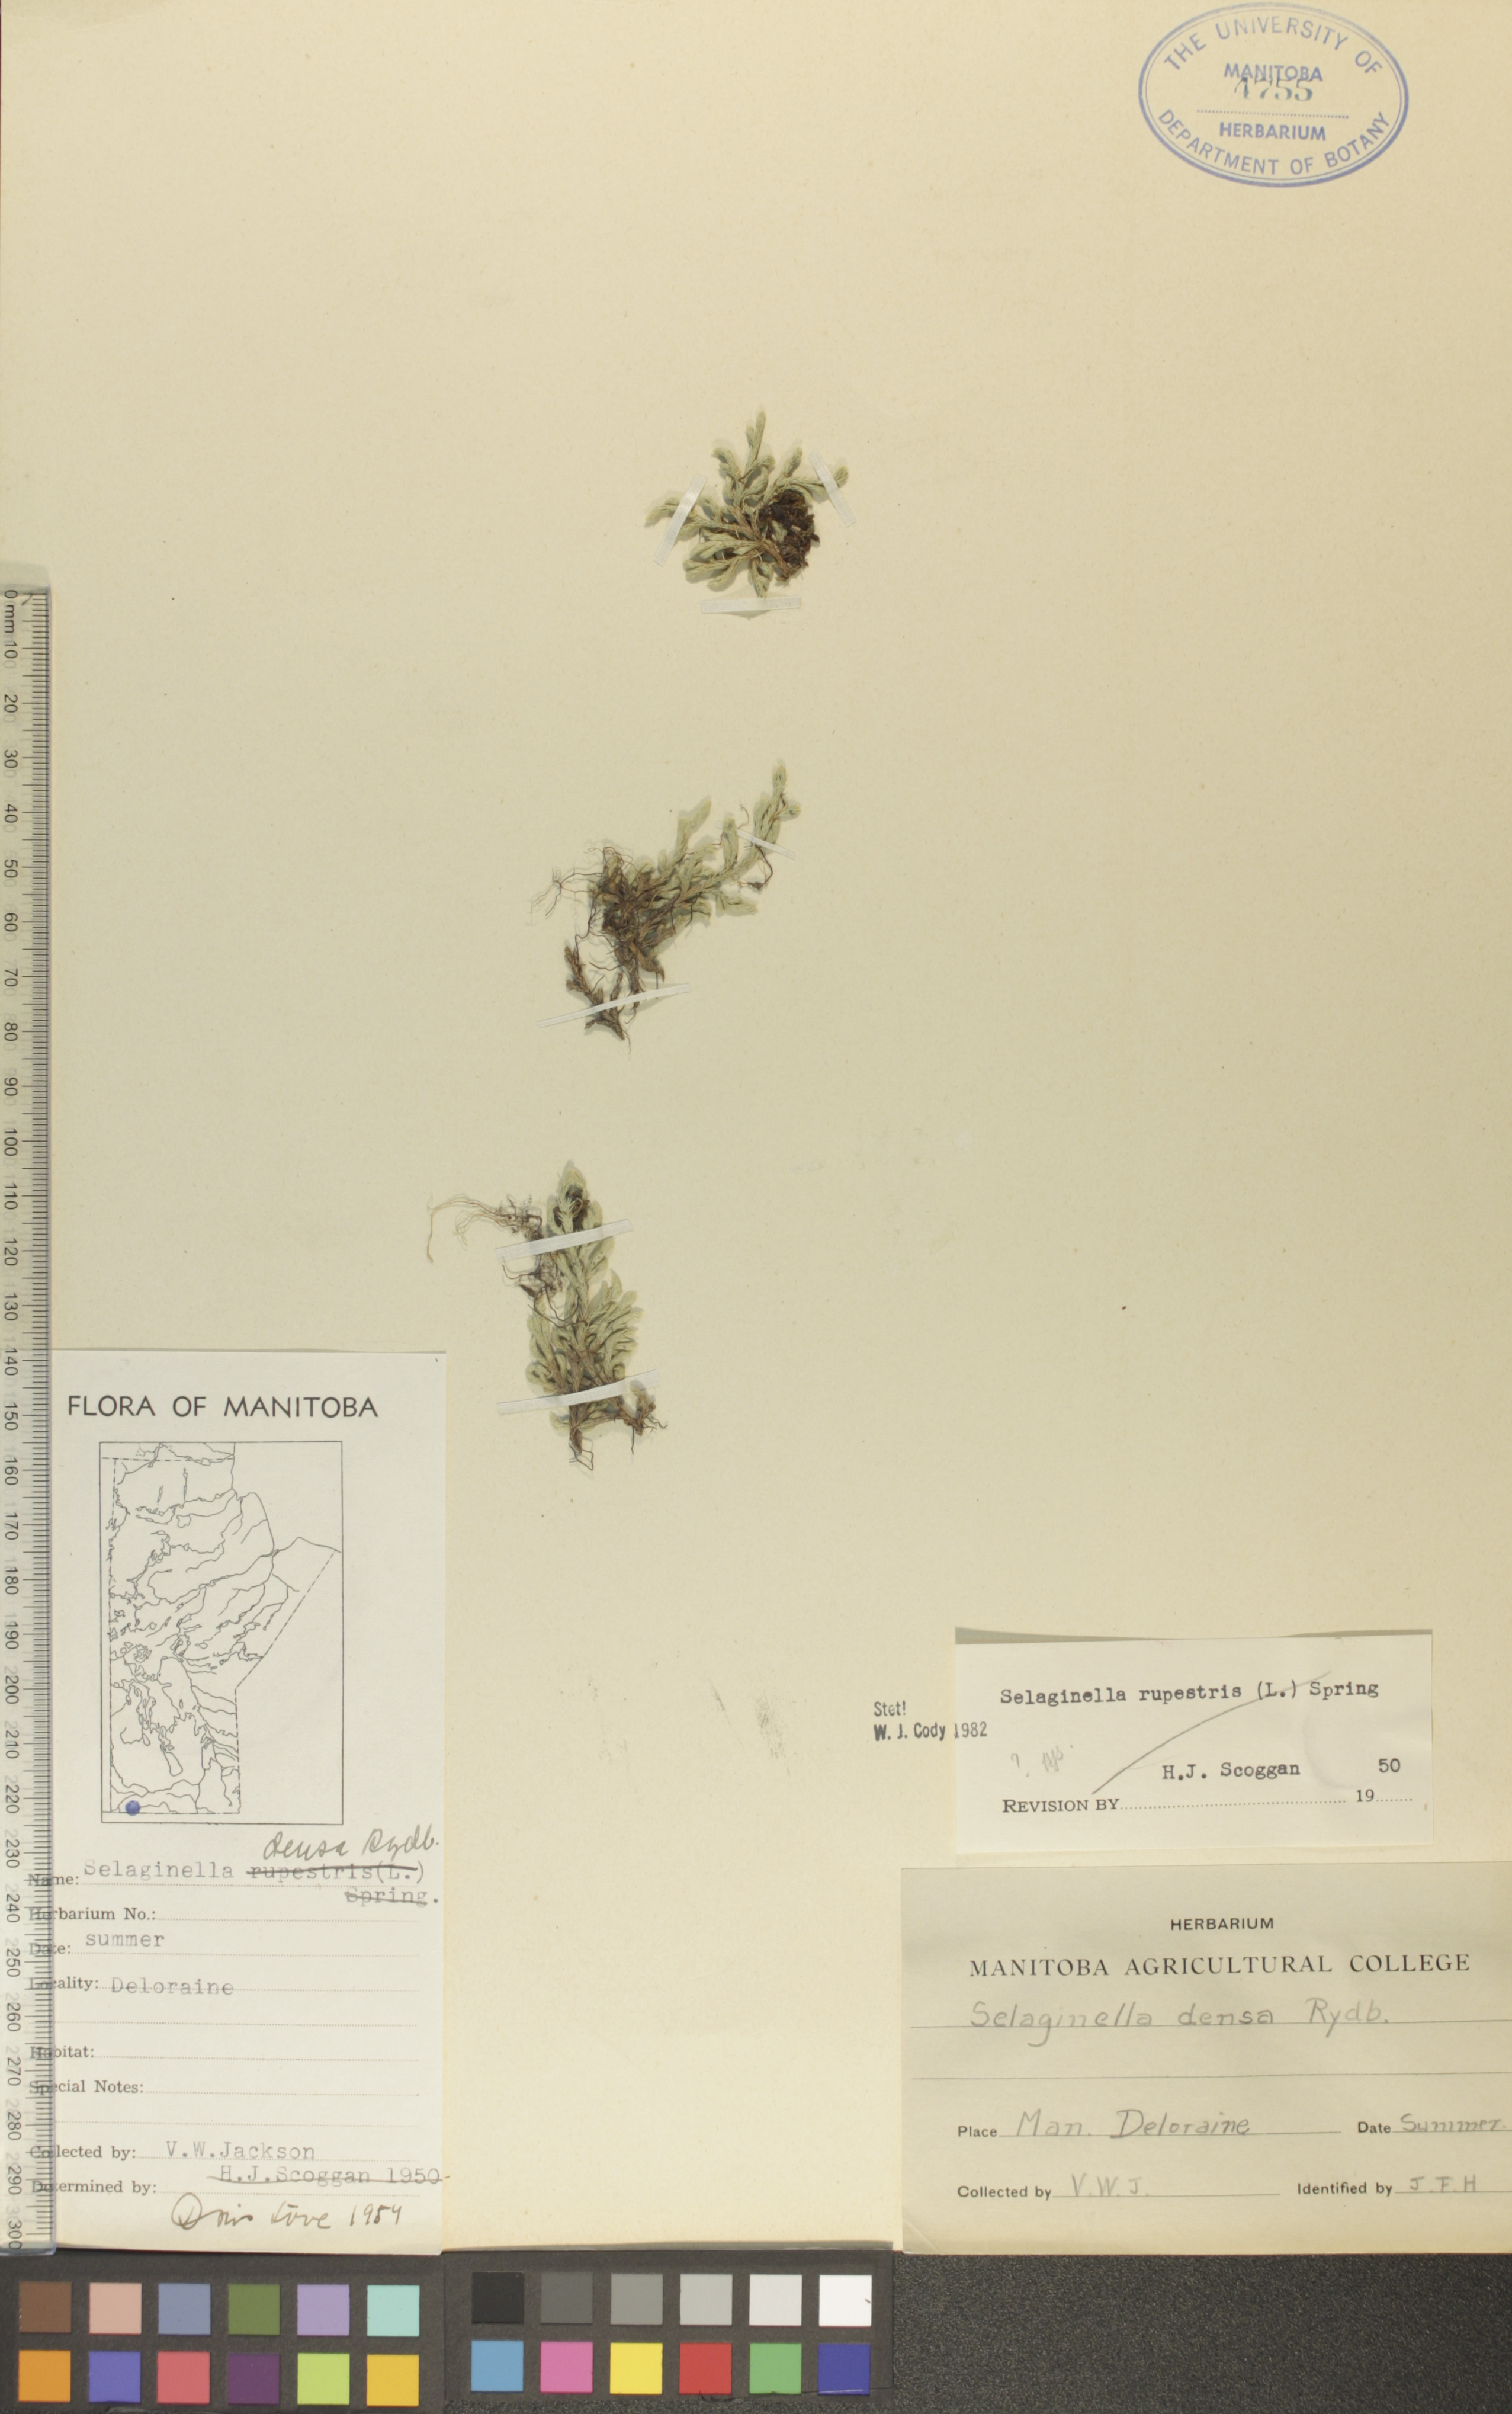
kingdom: Plantae
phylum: Tracheophyta
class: Lycopodiopsida
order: Selaginellales
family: Selaginellaceae
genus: Selaginella
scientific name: Selaginella rupestris
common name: Dwarf spikemoss
